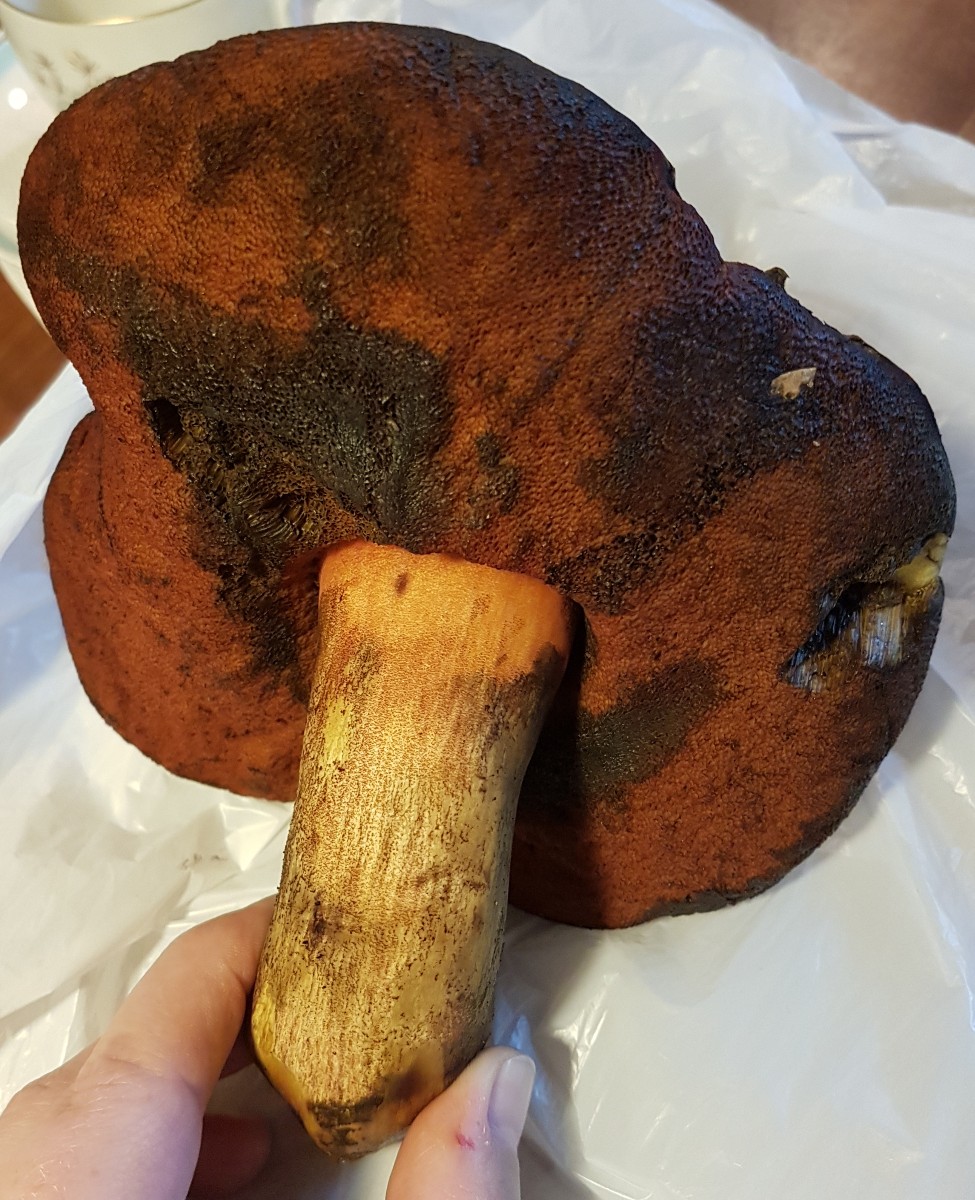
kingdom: Fungi
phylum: Basidiomycota
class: Agaricomycetes
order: Boletales
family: Boletaceae
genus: Neoboletus
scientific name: Neoboletus erythropus
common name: punktstokket indigorørhat
